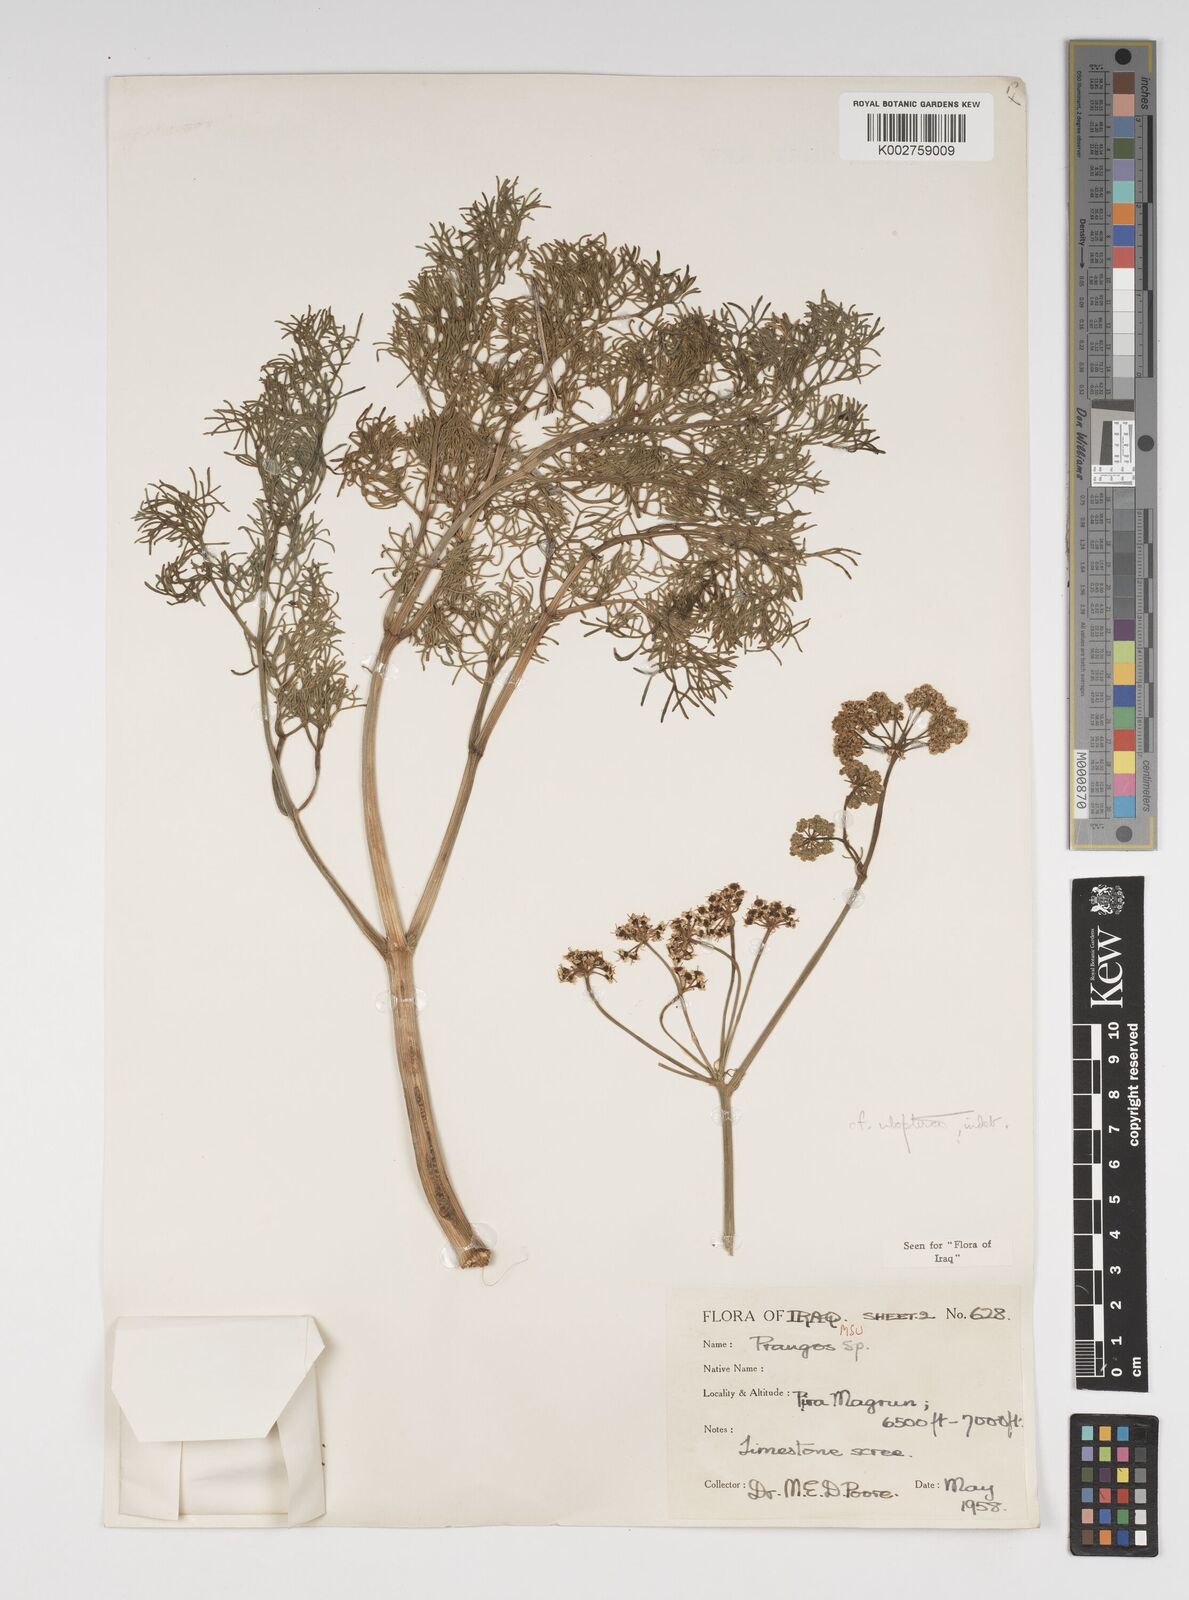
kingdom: Plantae
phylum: Tracheophyta
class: Magnoliopsida
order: Apiales
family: Apiaceae
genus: Prangos
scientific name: Prangos uloptera
